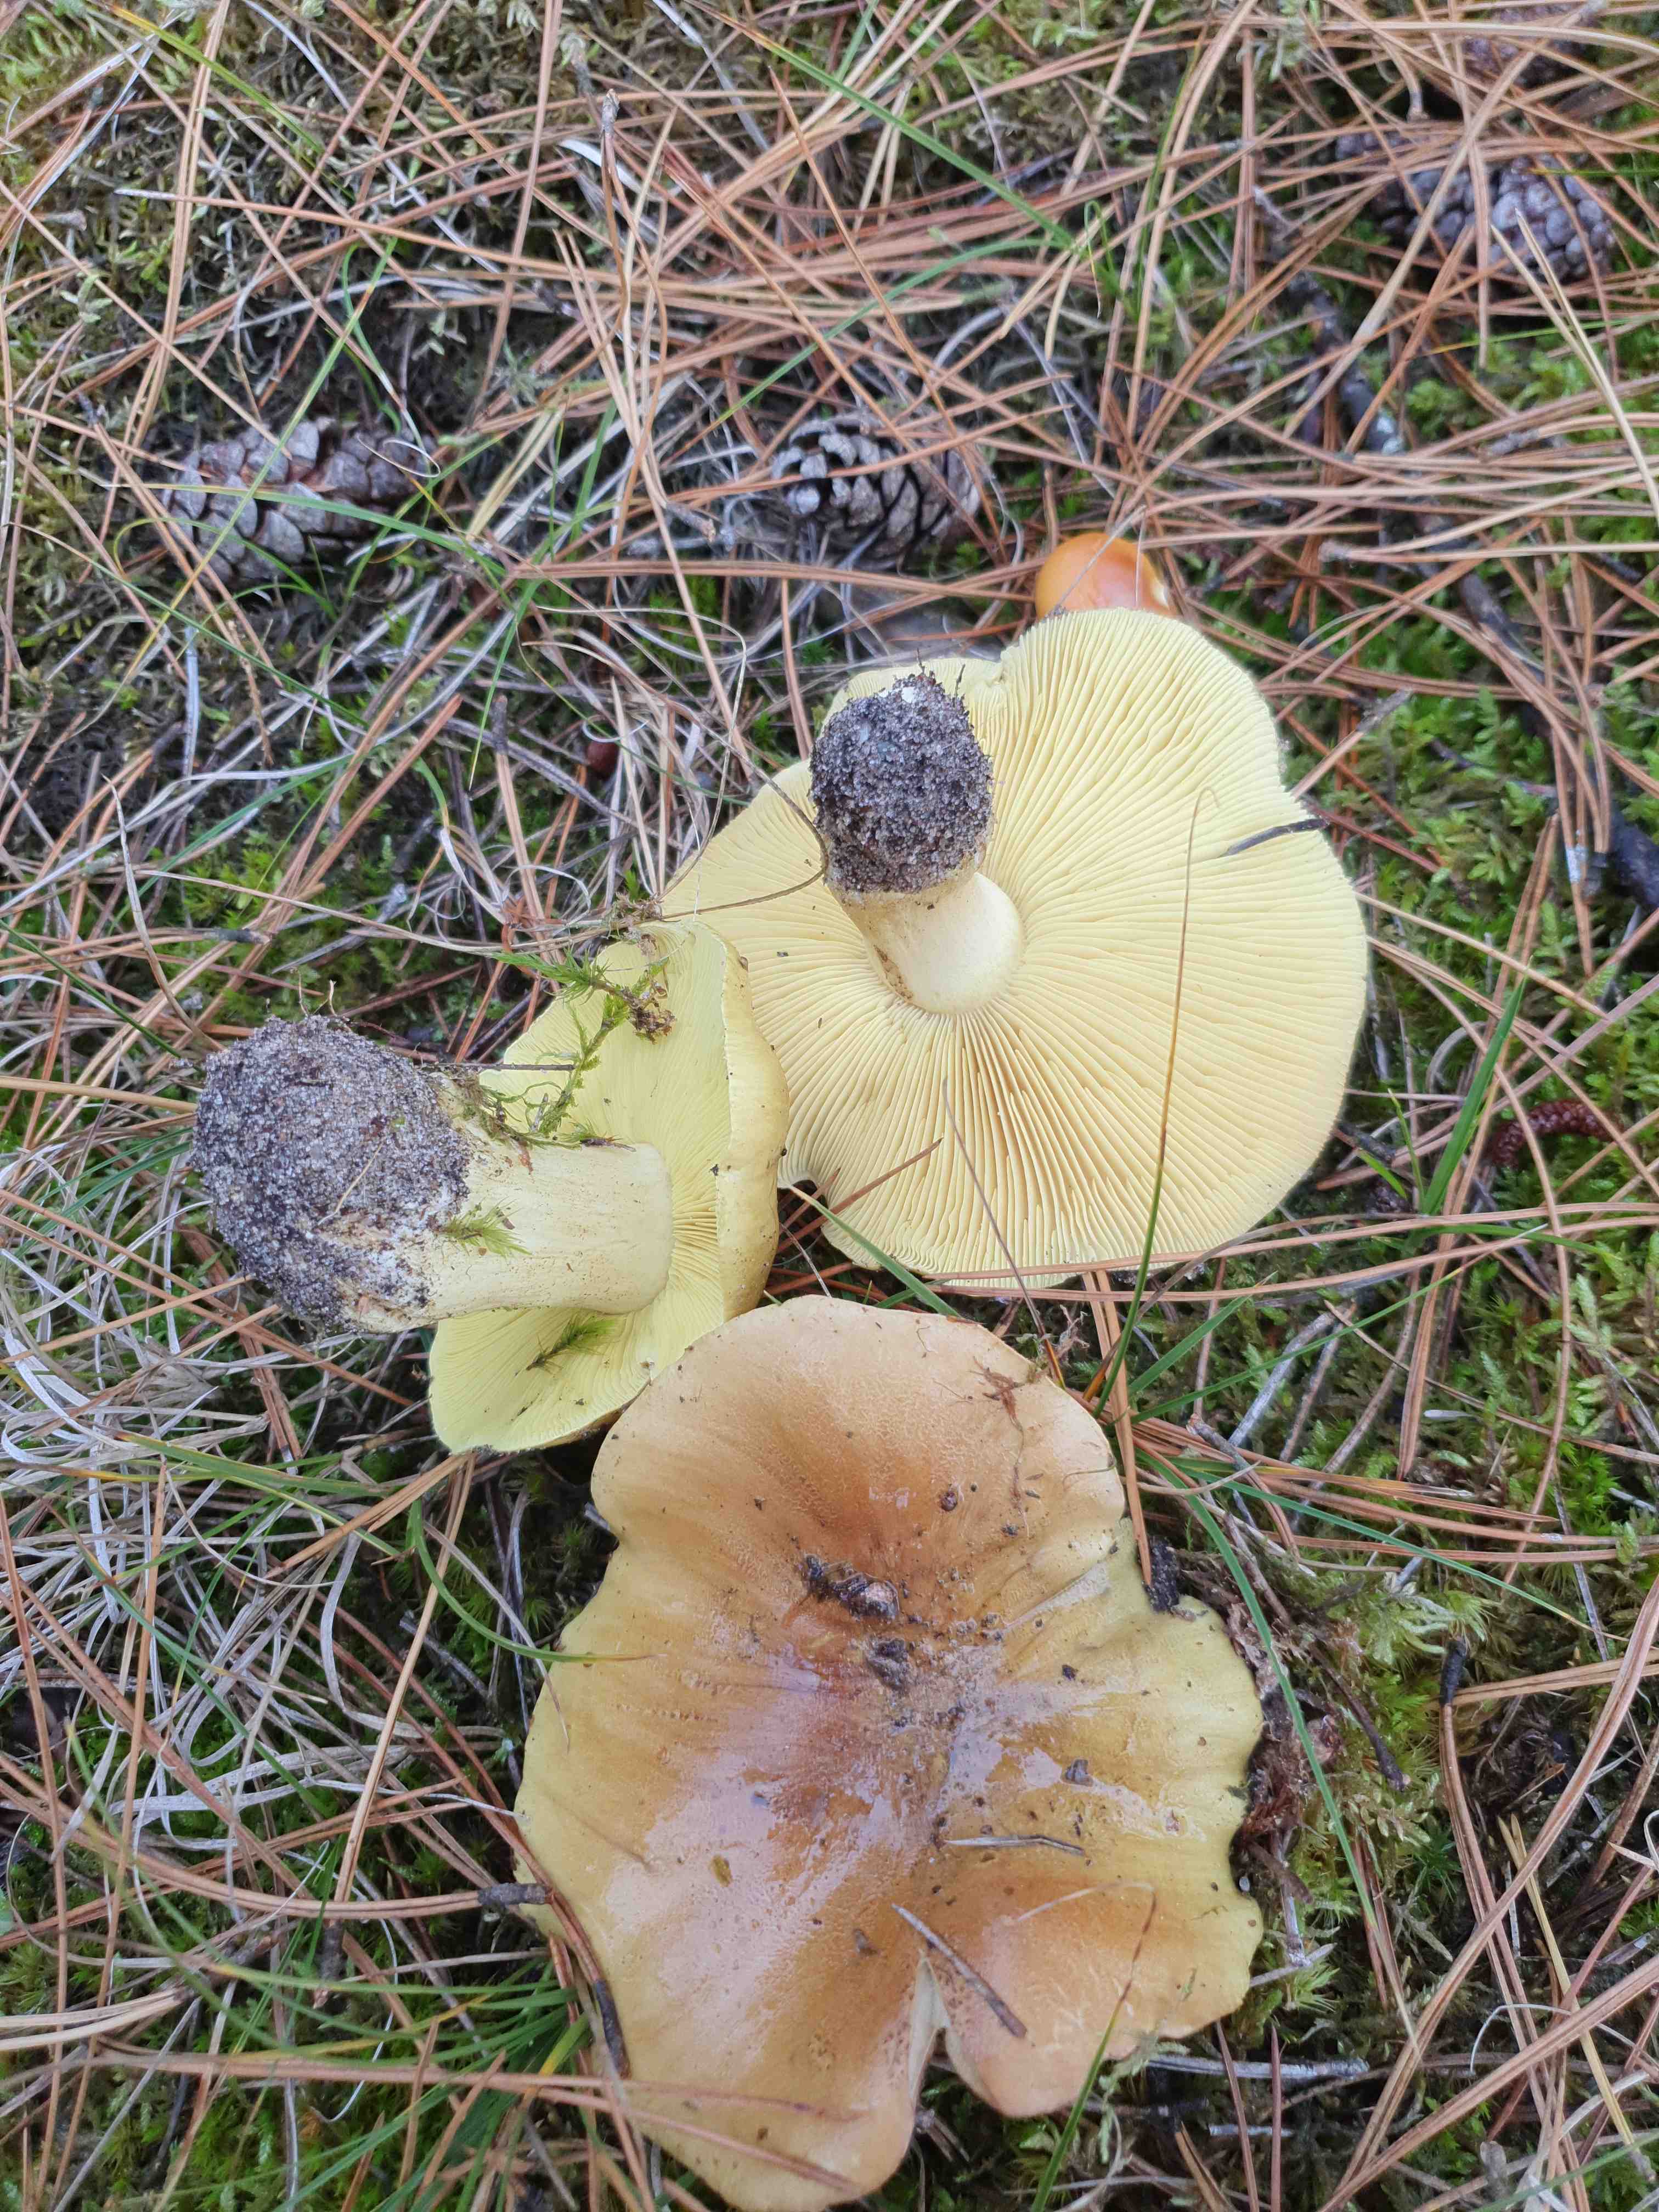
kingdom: Fungi
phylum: Basidiomycota
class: Agaricomycetes
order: Agaricales
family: Tricholomataceae
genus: Tricholoma
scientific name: Tricholoma equestre
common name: ægte ridderhat
